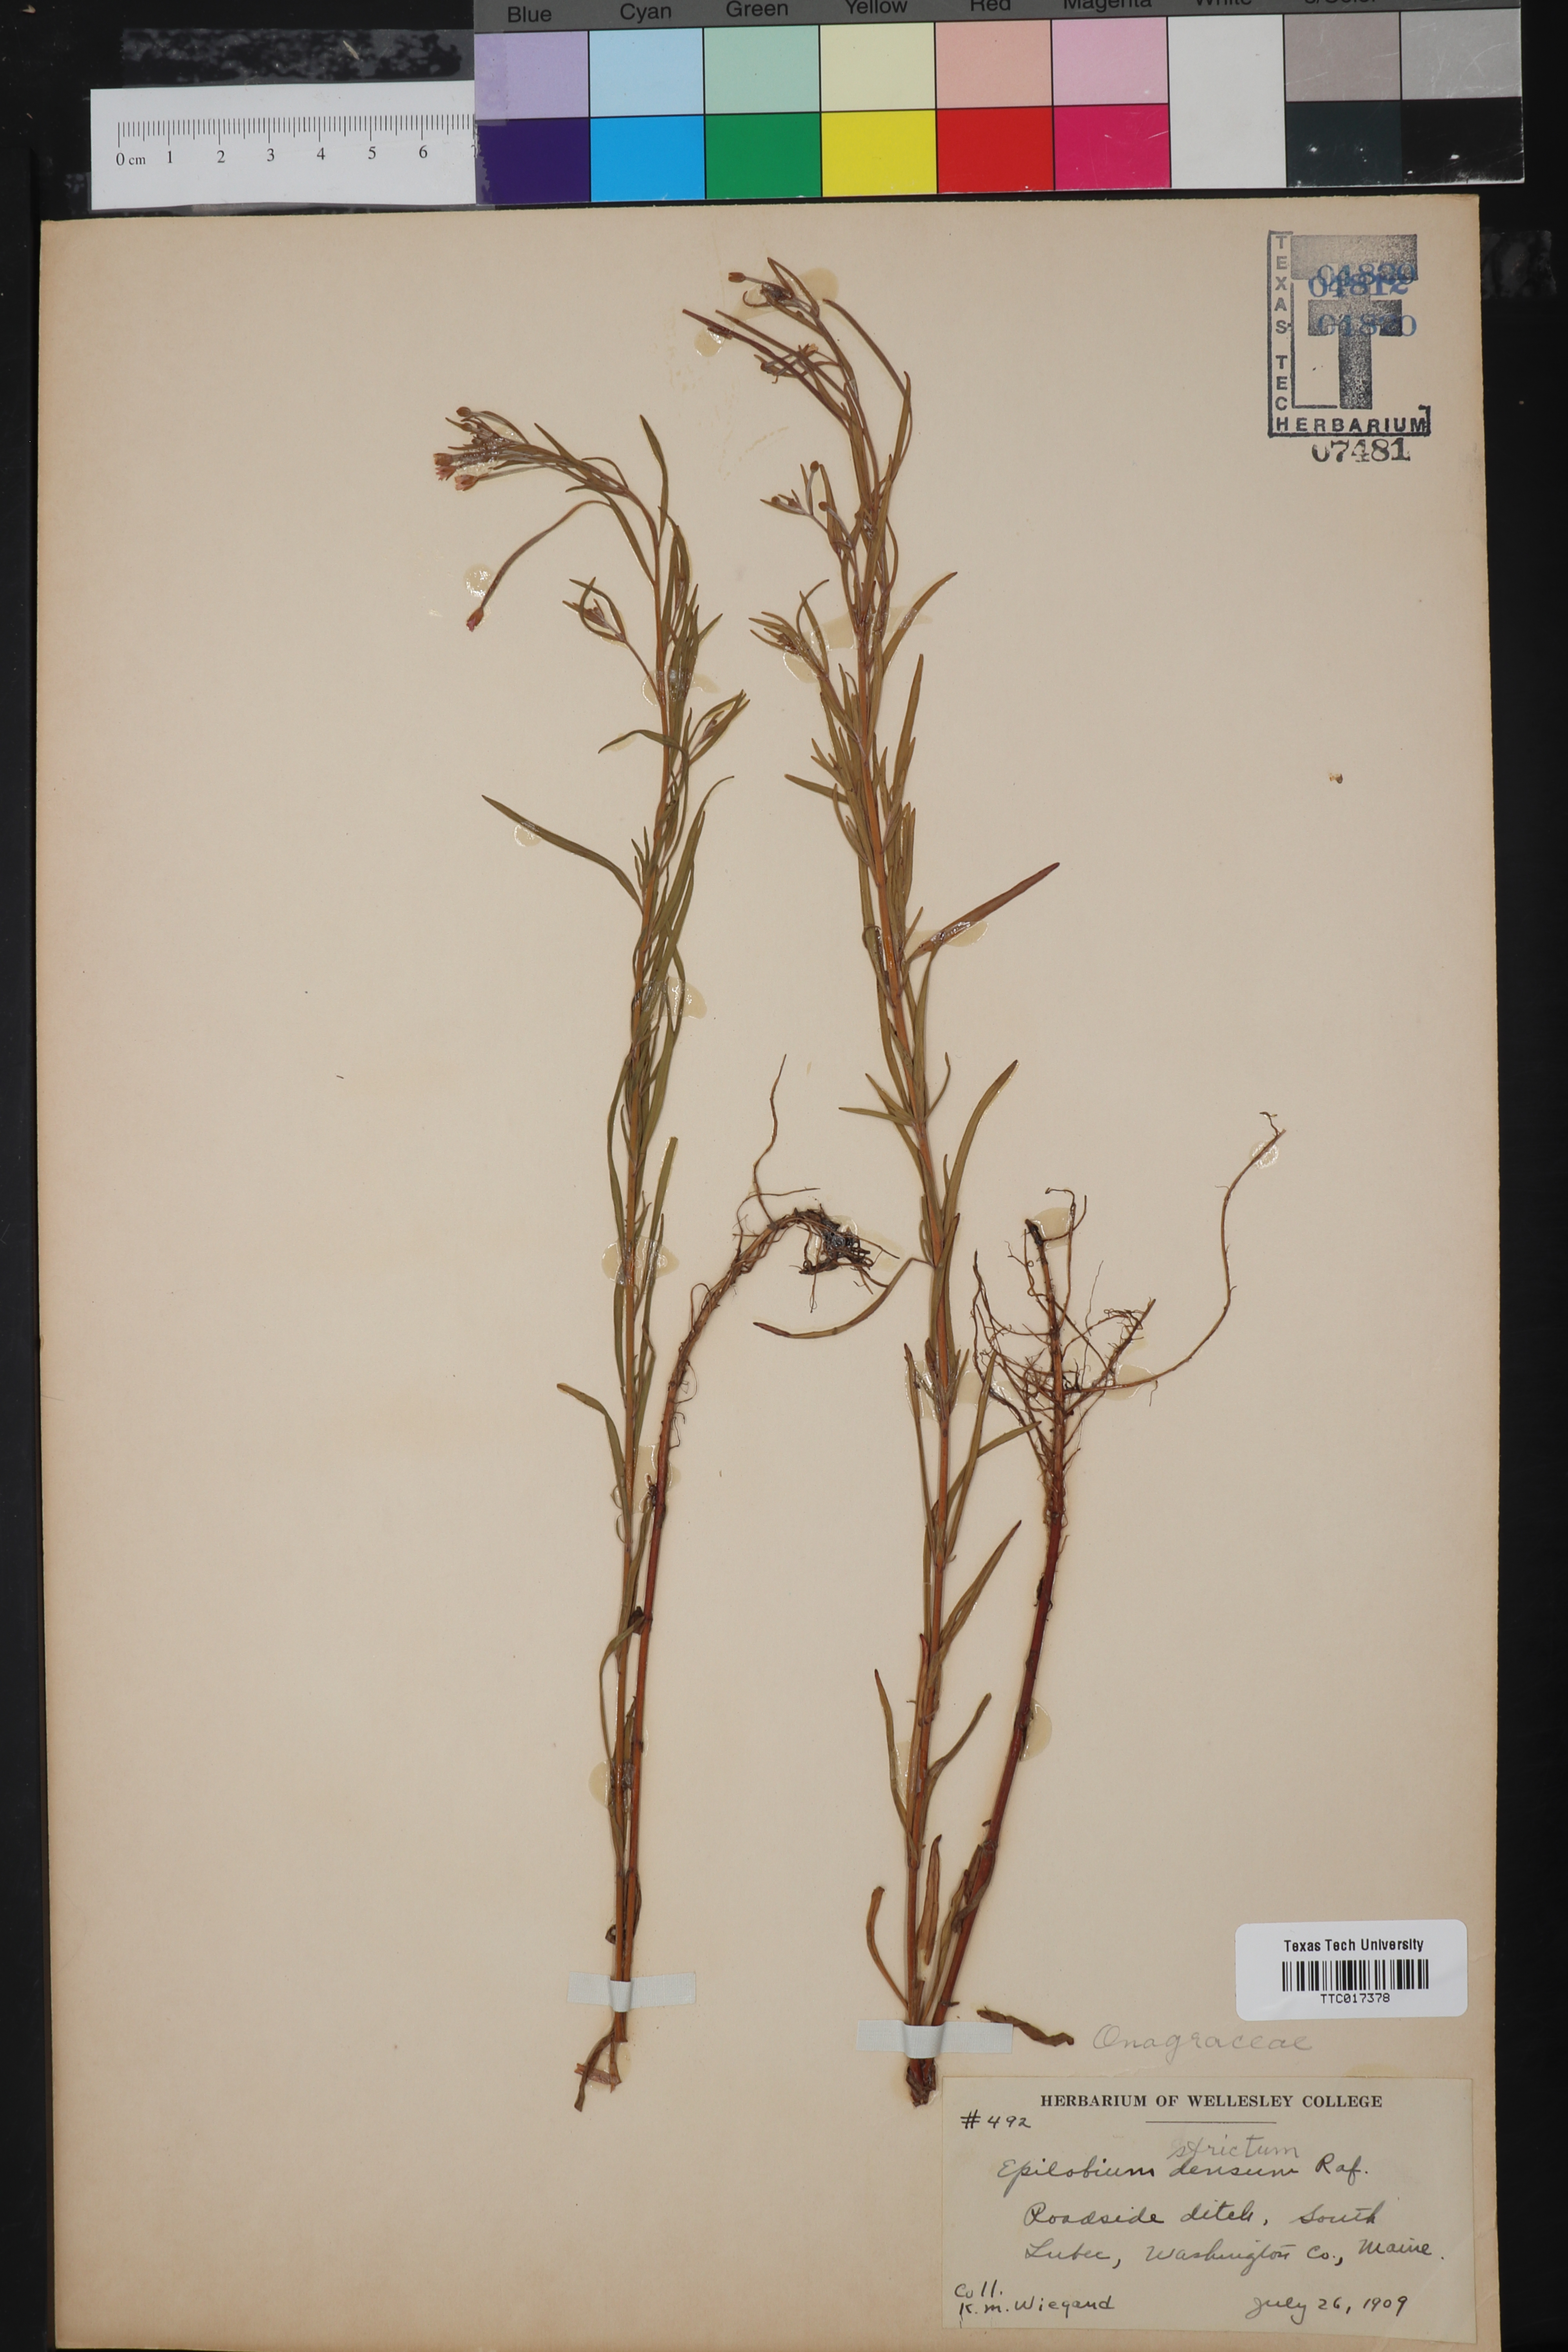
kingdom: Plantae
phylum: Tracheophyta
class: Magnoliopsida
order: Myrtales
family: Onagraceae
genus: Epilobium
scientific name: Epilobium densum
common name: Downy willowherb
